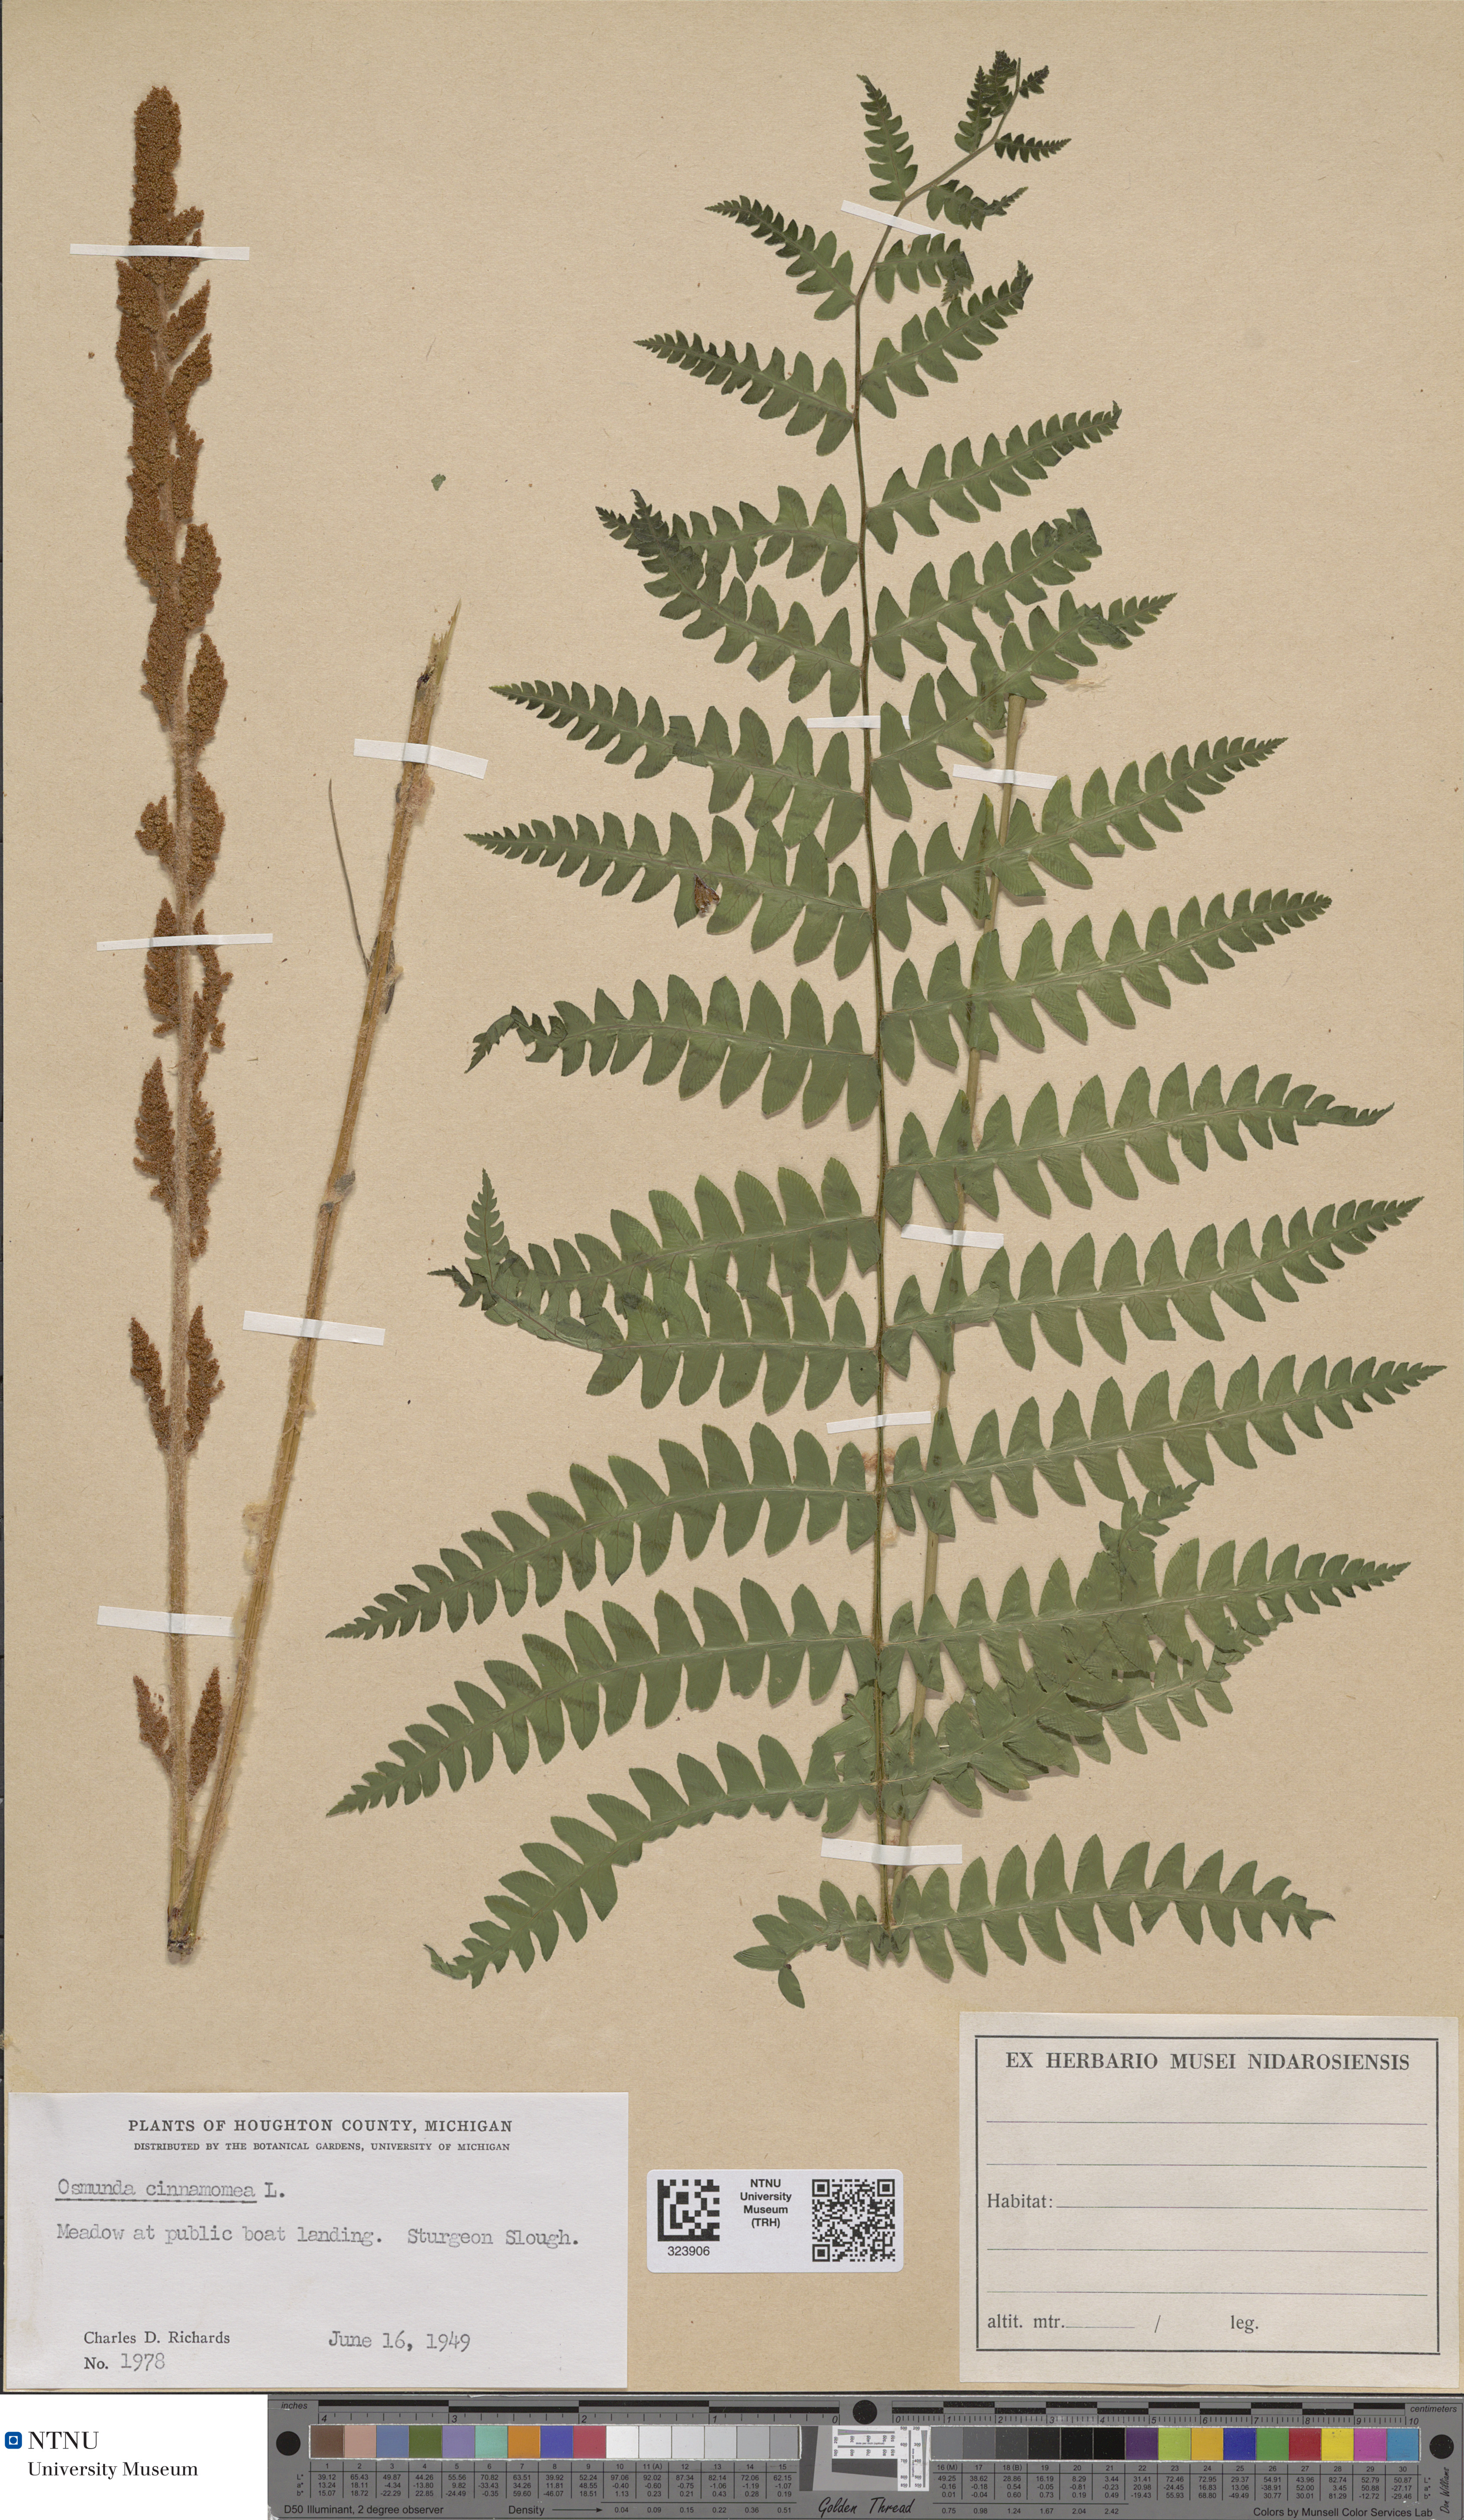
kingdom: Plantae
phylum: Tracheophyta
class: Polypodiopsida
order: Osmundales
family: Osmundaceae
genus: Claytosmunda
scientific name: Claytosmunda claytoniana
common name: Clayton's fern
